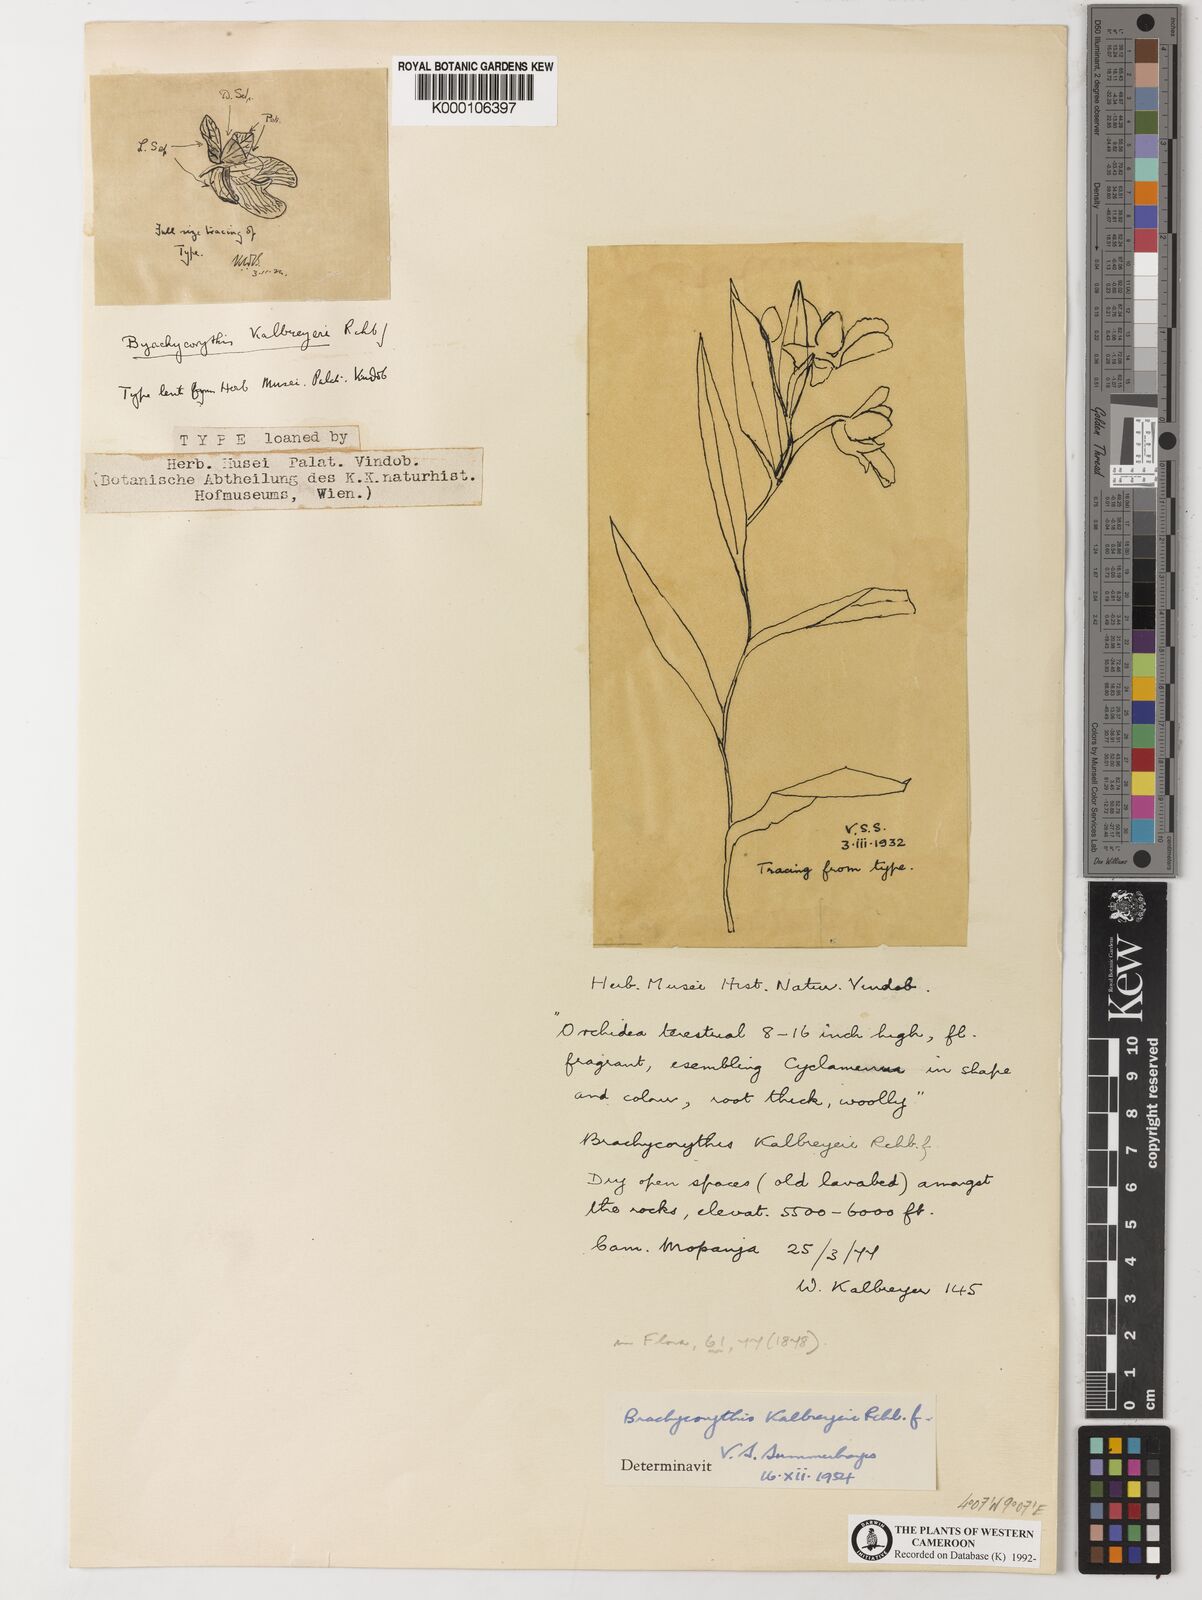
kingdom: Plantae
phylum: Tracheophyta
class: Liliopsida
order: Asparagales
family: Orchidaceae
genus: Brachycorythis
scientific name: Brachycorythis kalbreyeri
